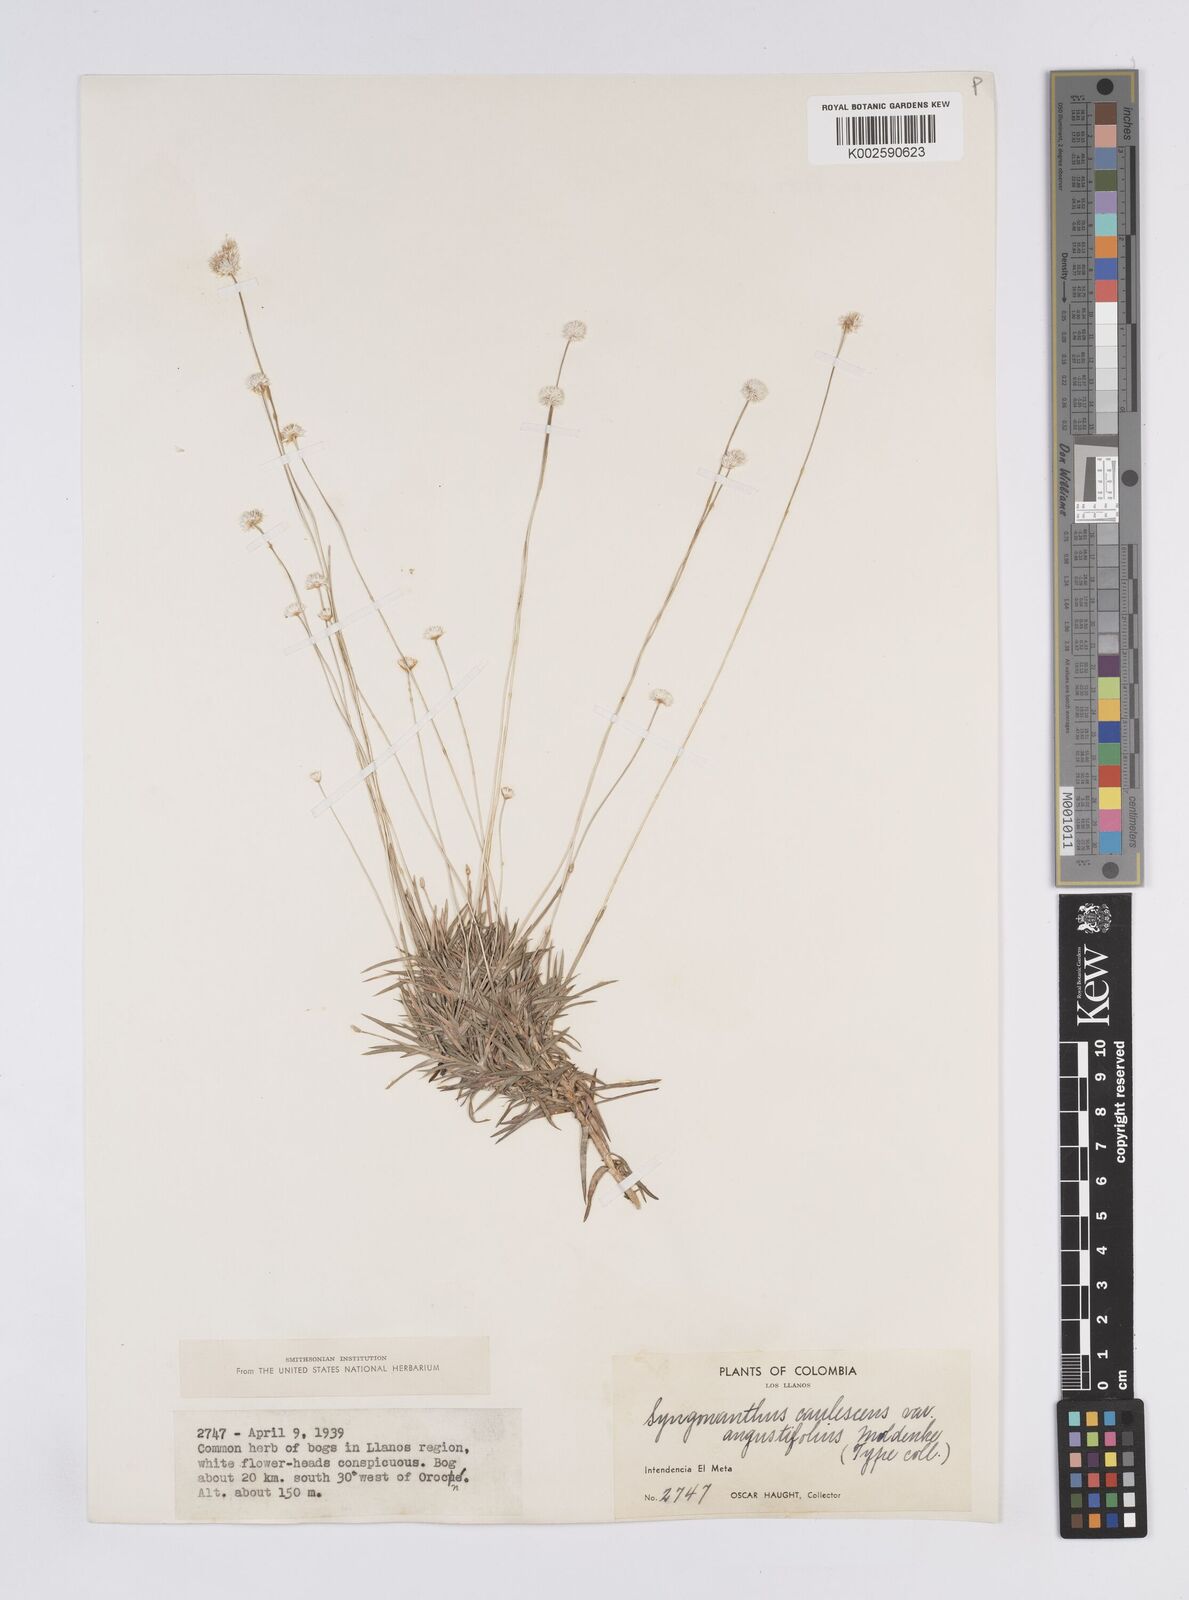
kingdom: Plantae
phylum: Tracheophyta
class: Liliopsida
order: Poales
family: Eriocaulaceae
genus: Syngonanthus
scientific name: Syngonanthus caulescens
